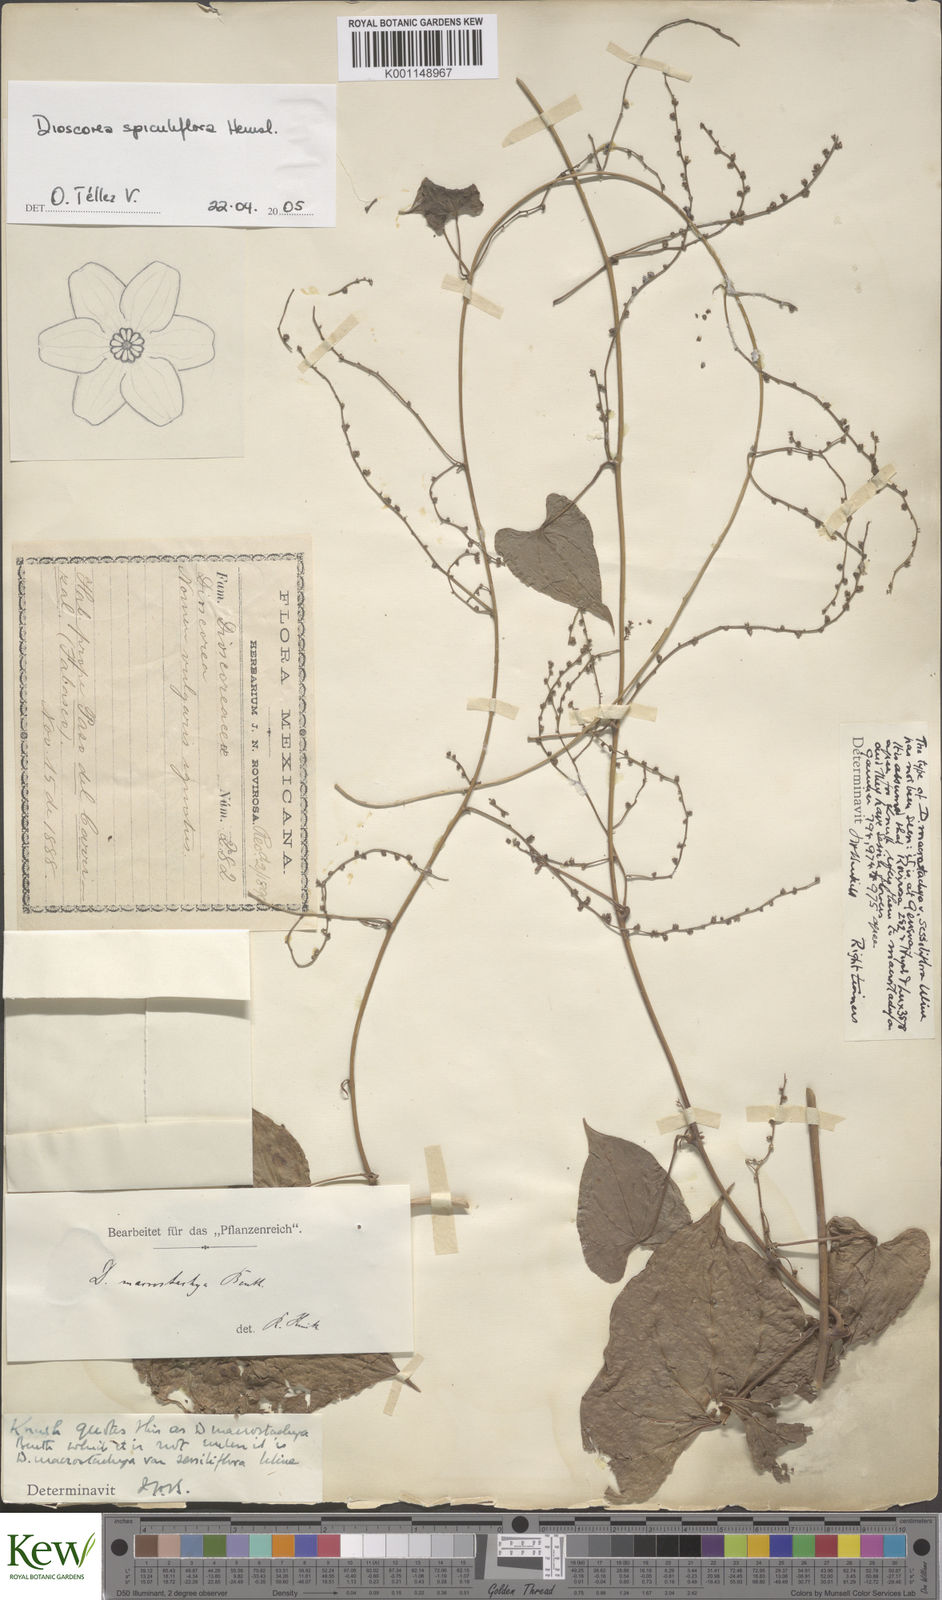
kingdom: Plantae
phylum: Tracheophyta
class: Liliopsida
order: Dioscoreales
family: Dioscoreaceae
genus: Dioscorea
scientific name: Dioscorea spiculiflora
